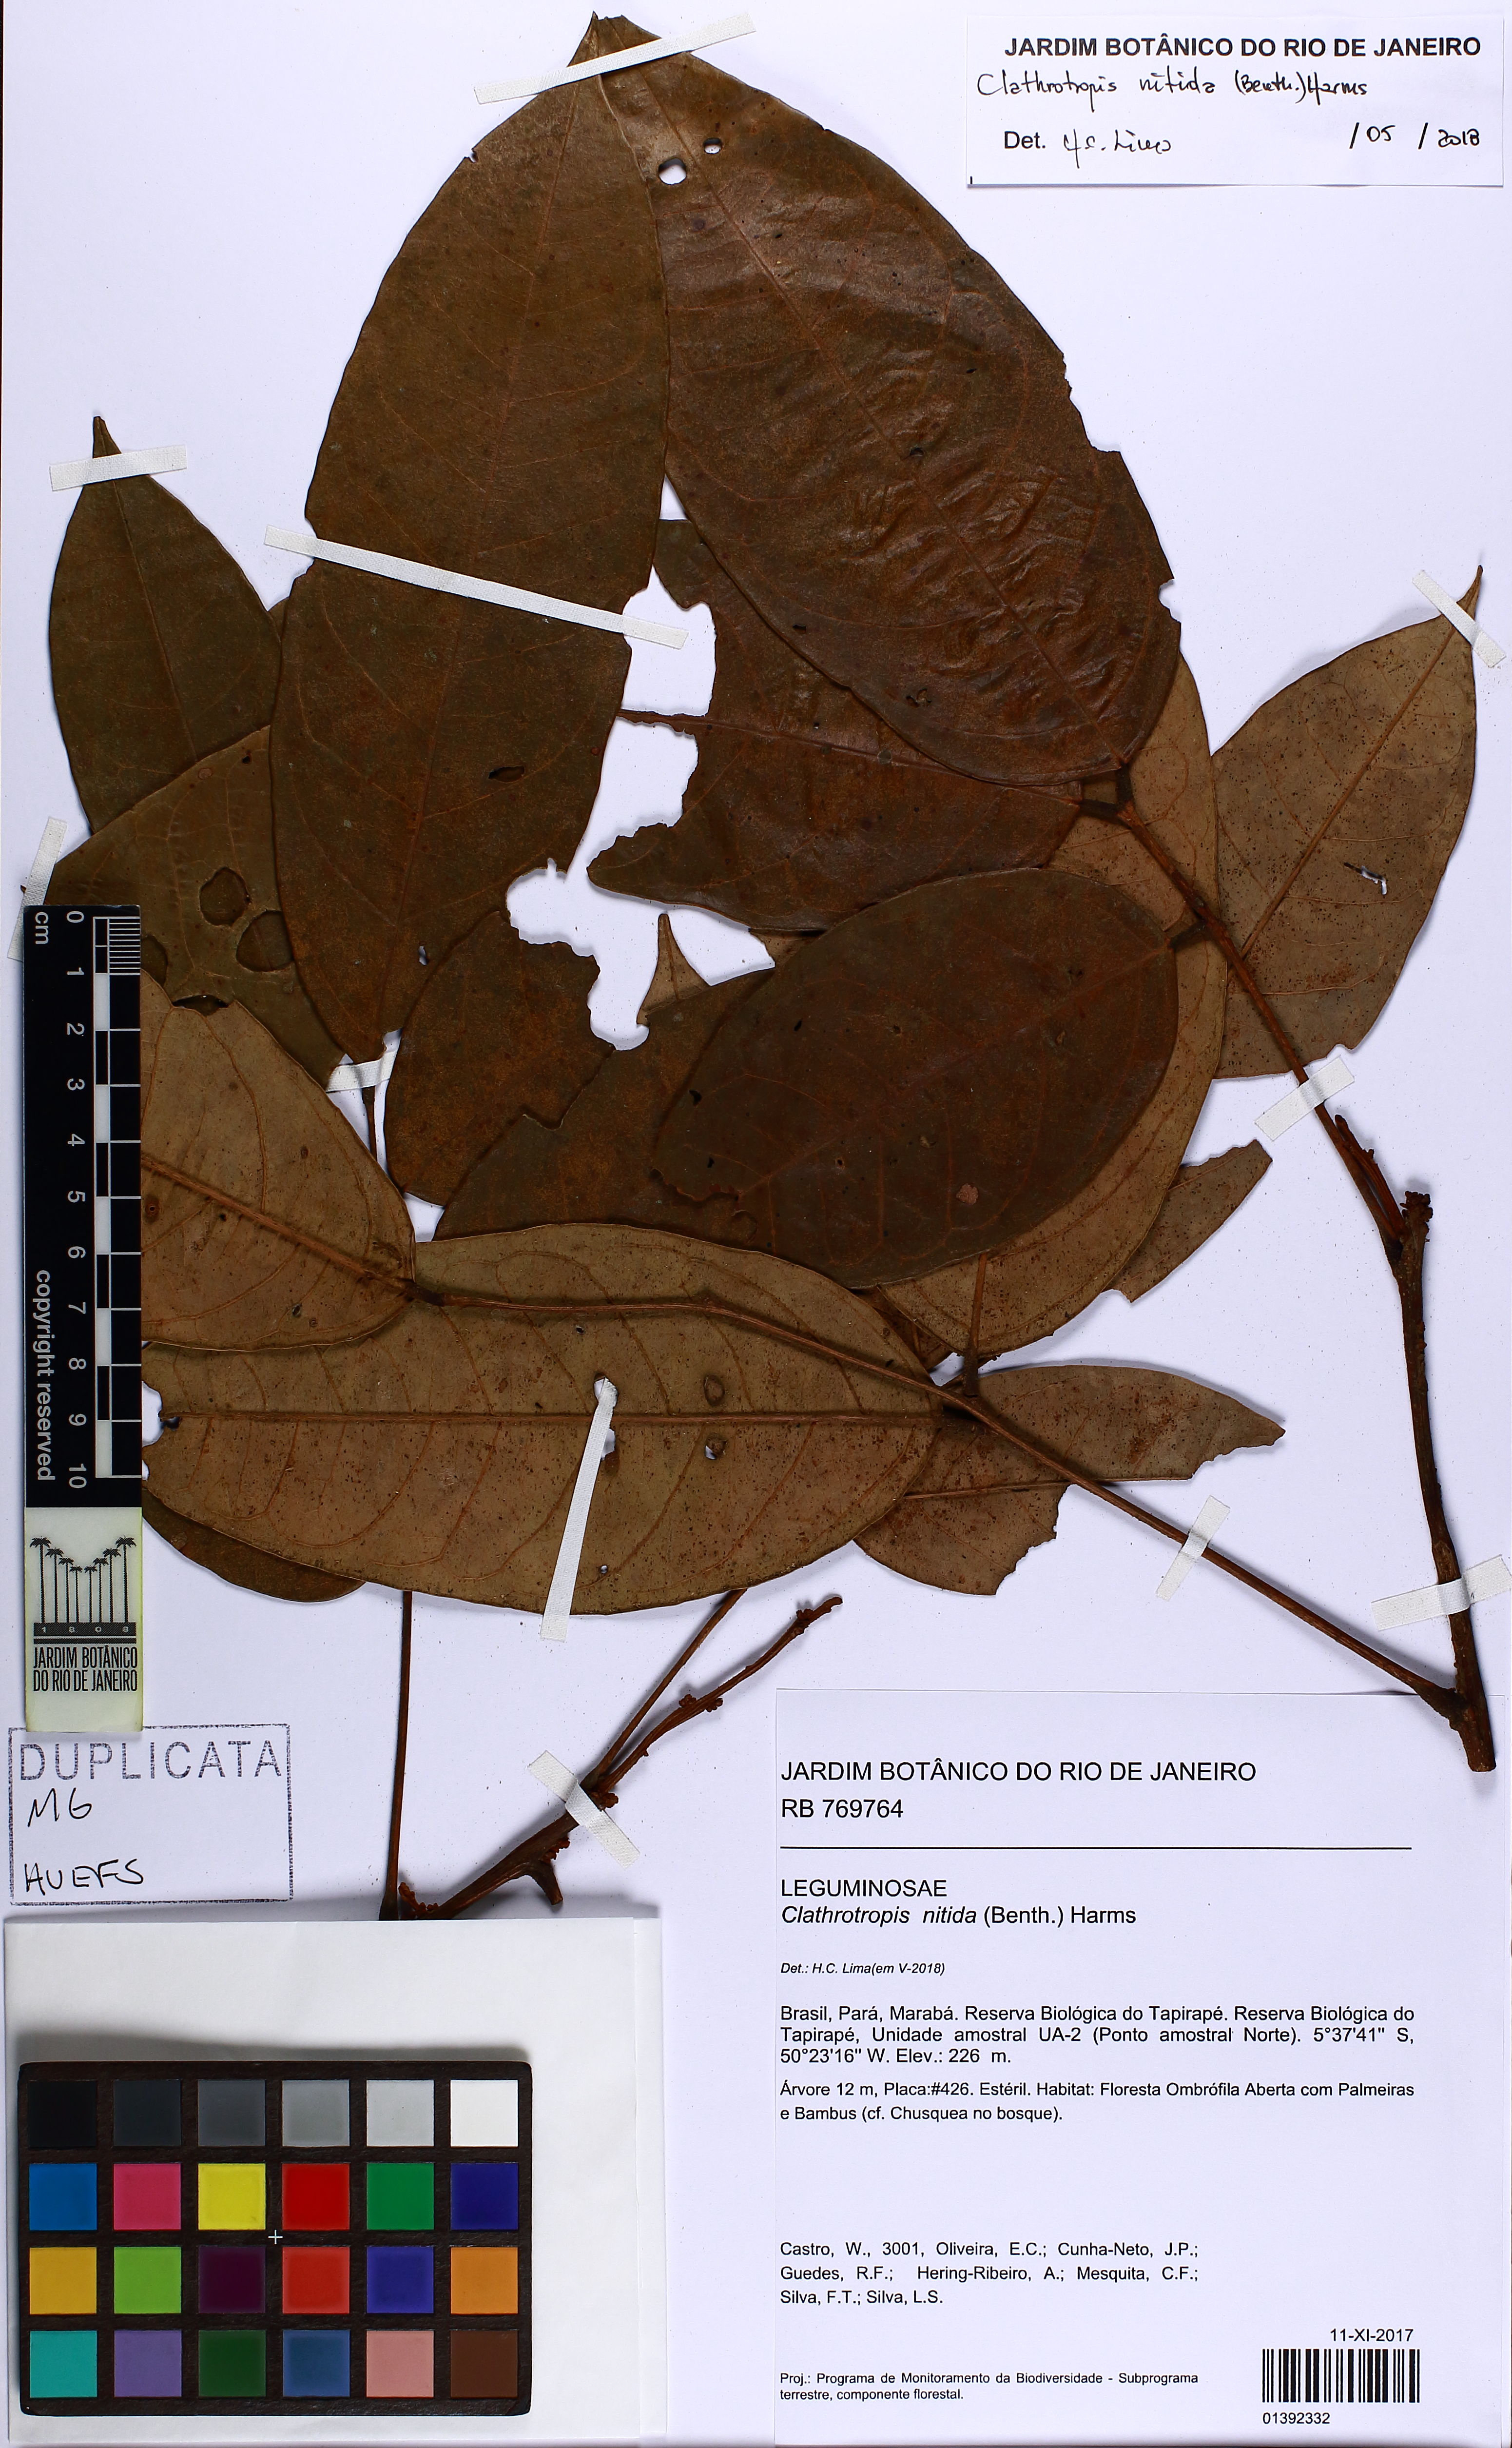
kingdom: Plantae
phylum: Tracheophyta
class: Magnoliopsida
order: Fabales
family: Fabaceae
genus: Clathrotropis
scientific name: Clathrotropis nitida
